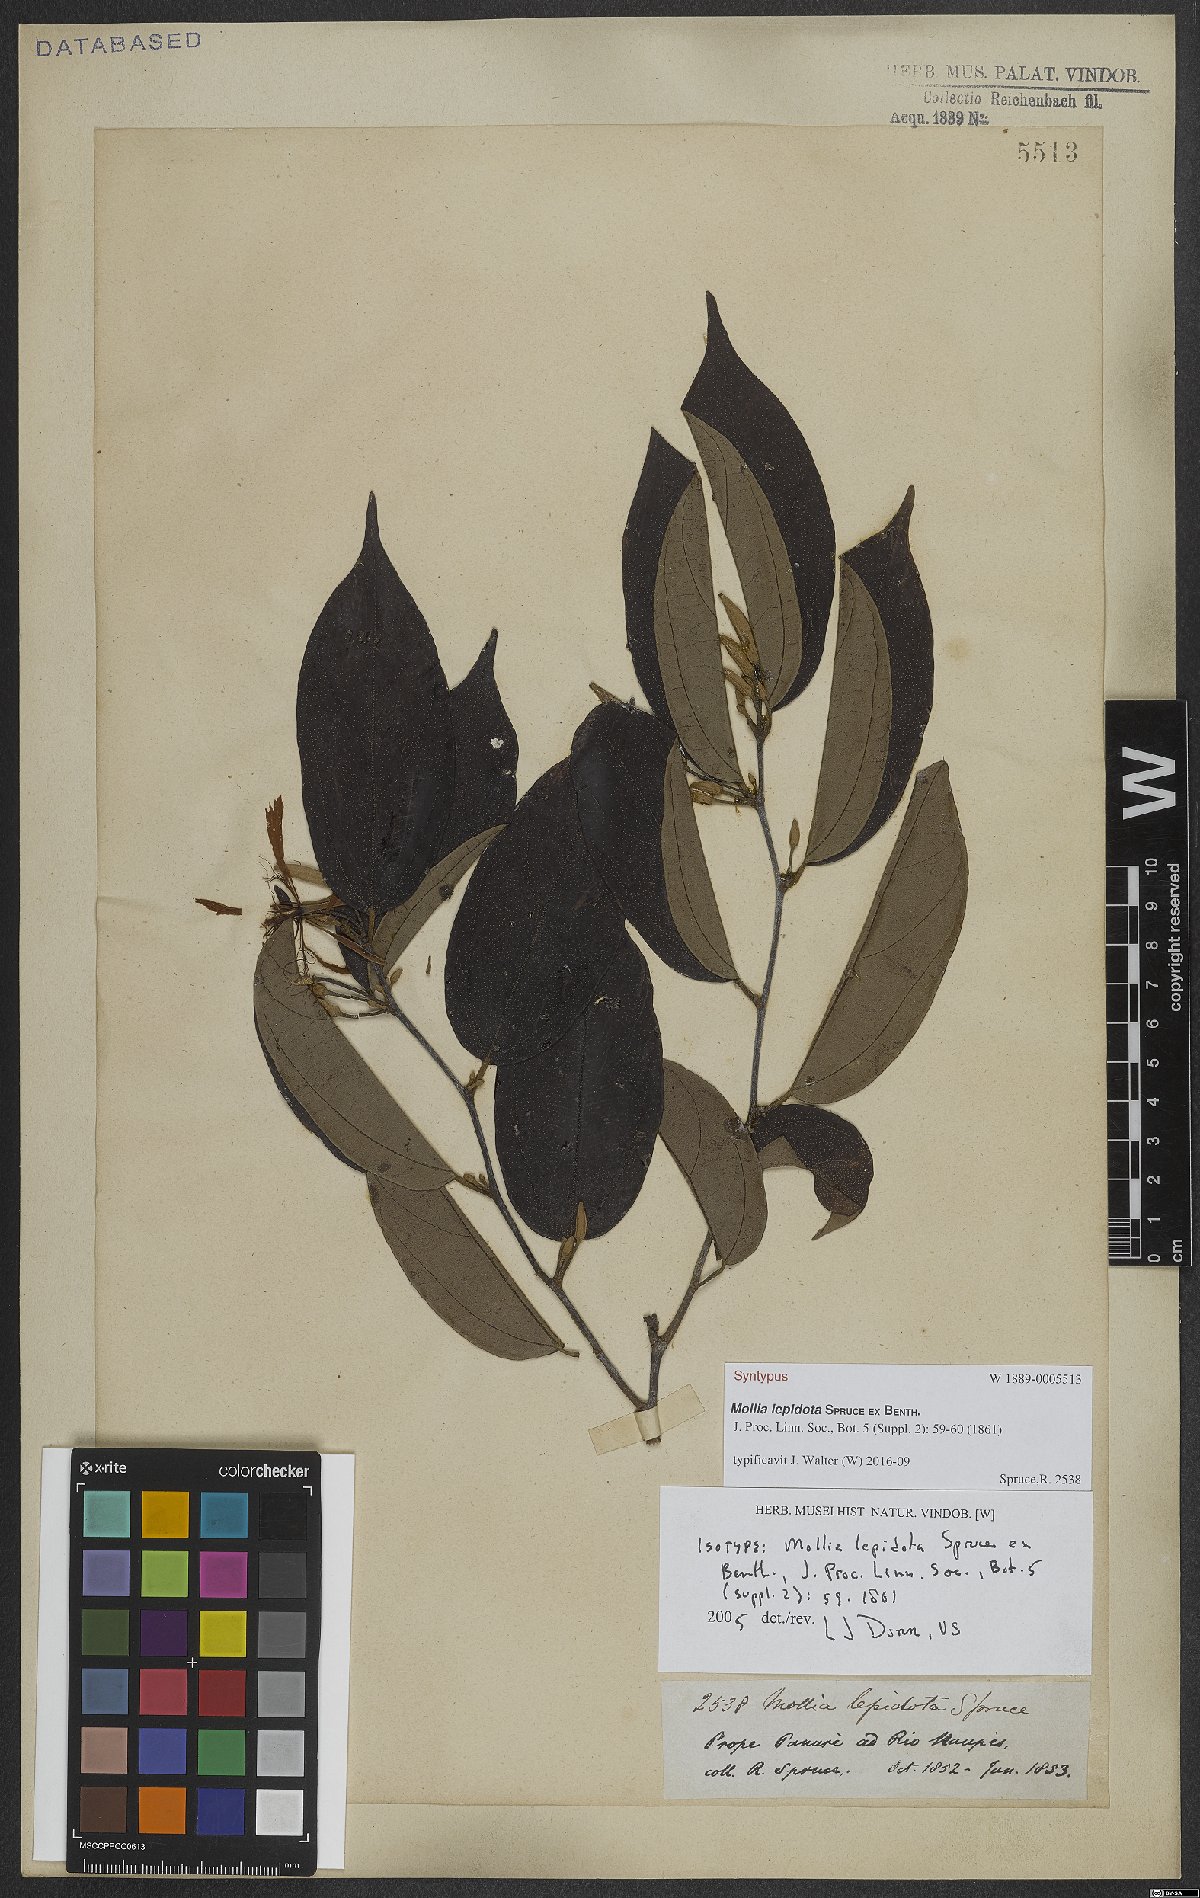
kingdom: Plantae
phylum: Tracheophyta
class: Magnoliopsida
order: Malvales
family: Malvaceae
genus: Mollia
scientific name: Mollia lepidota
